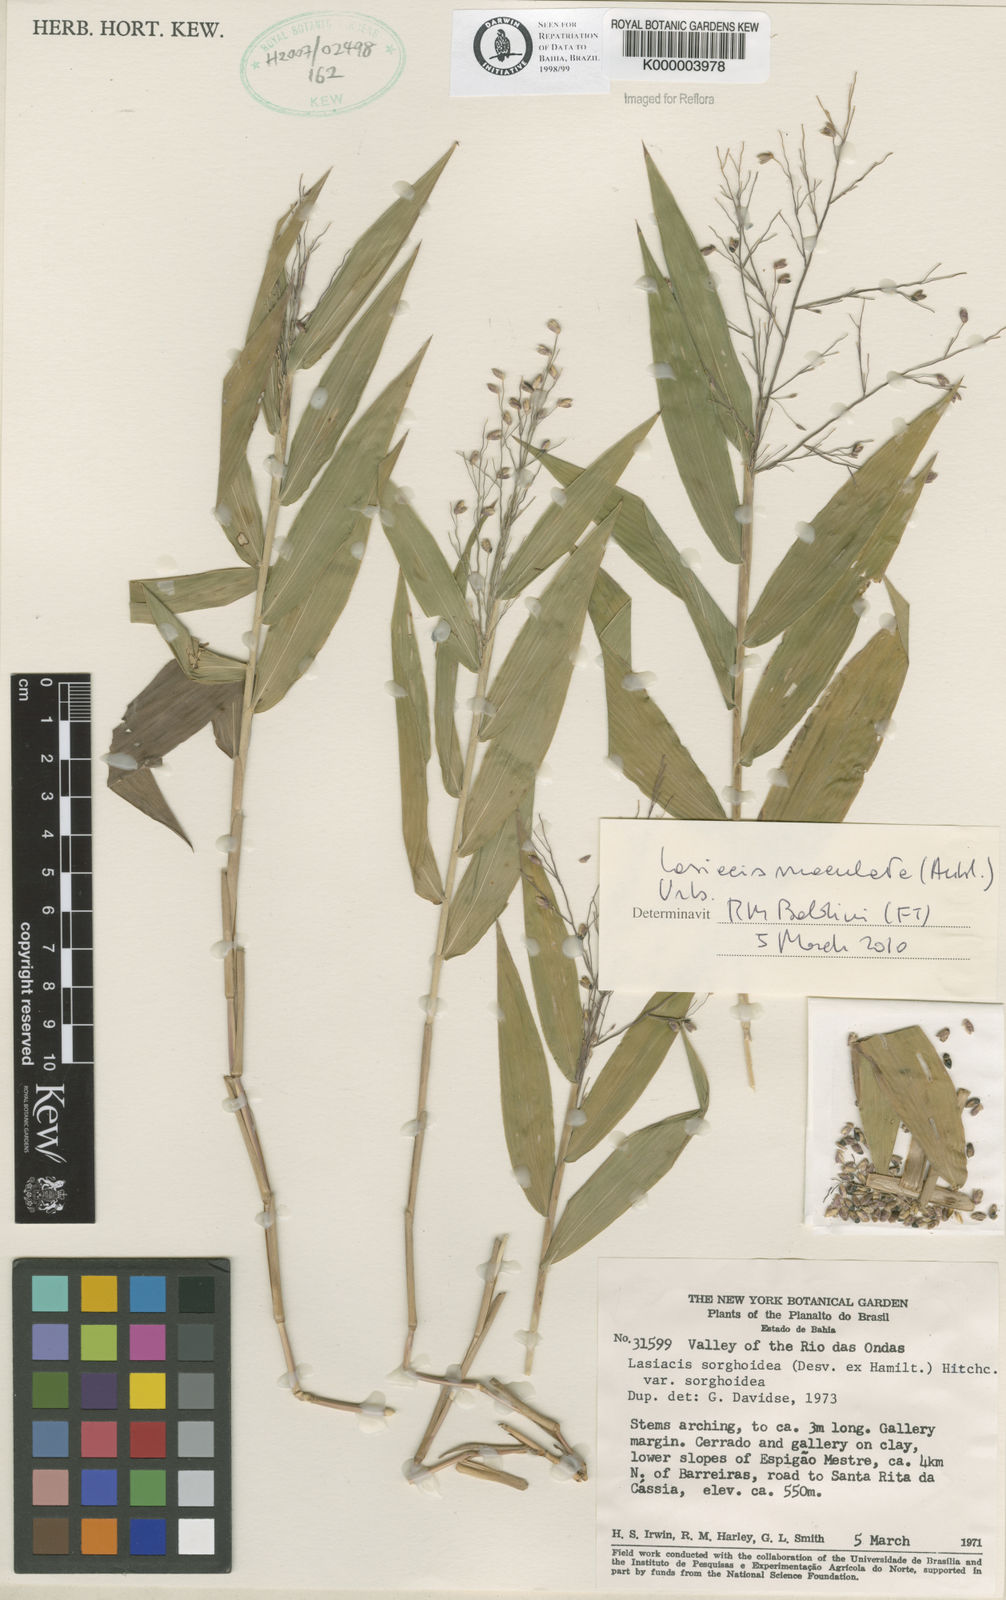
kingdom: Plantae
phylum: Tracheophyta
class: Liliopsida
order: Poales
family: Poaceae
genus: Lasiacis
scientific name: Lasiacis maculata
